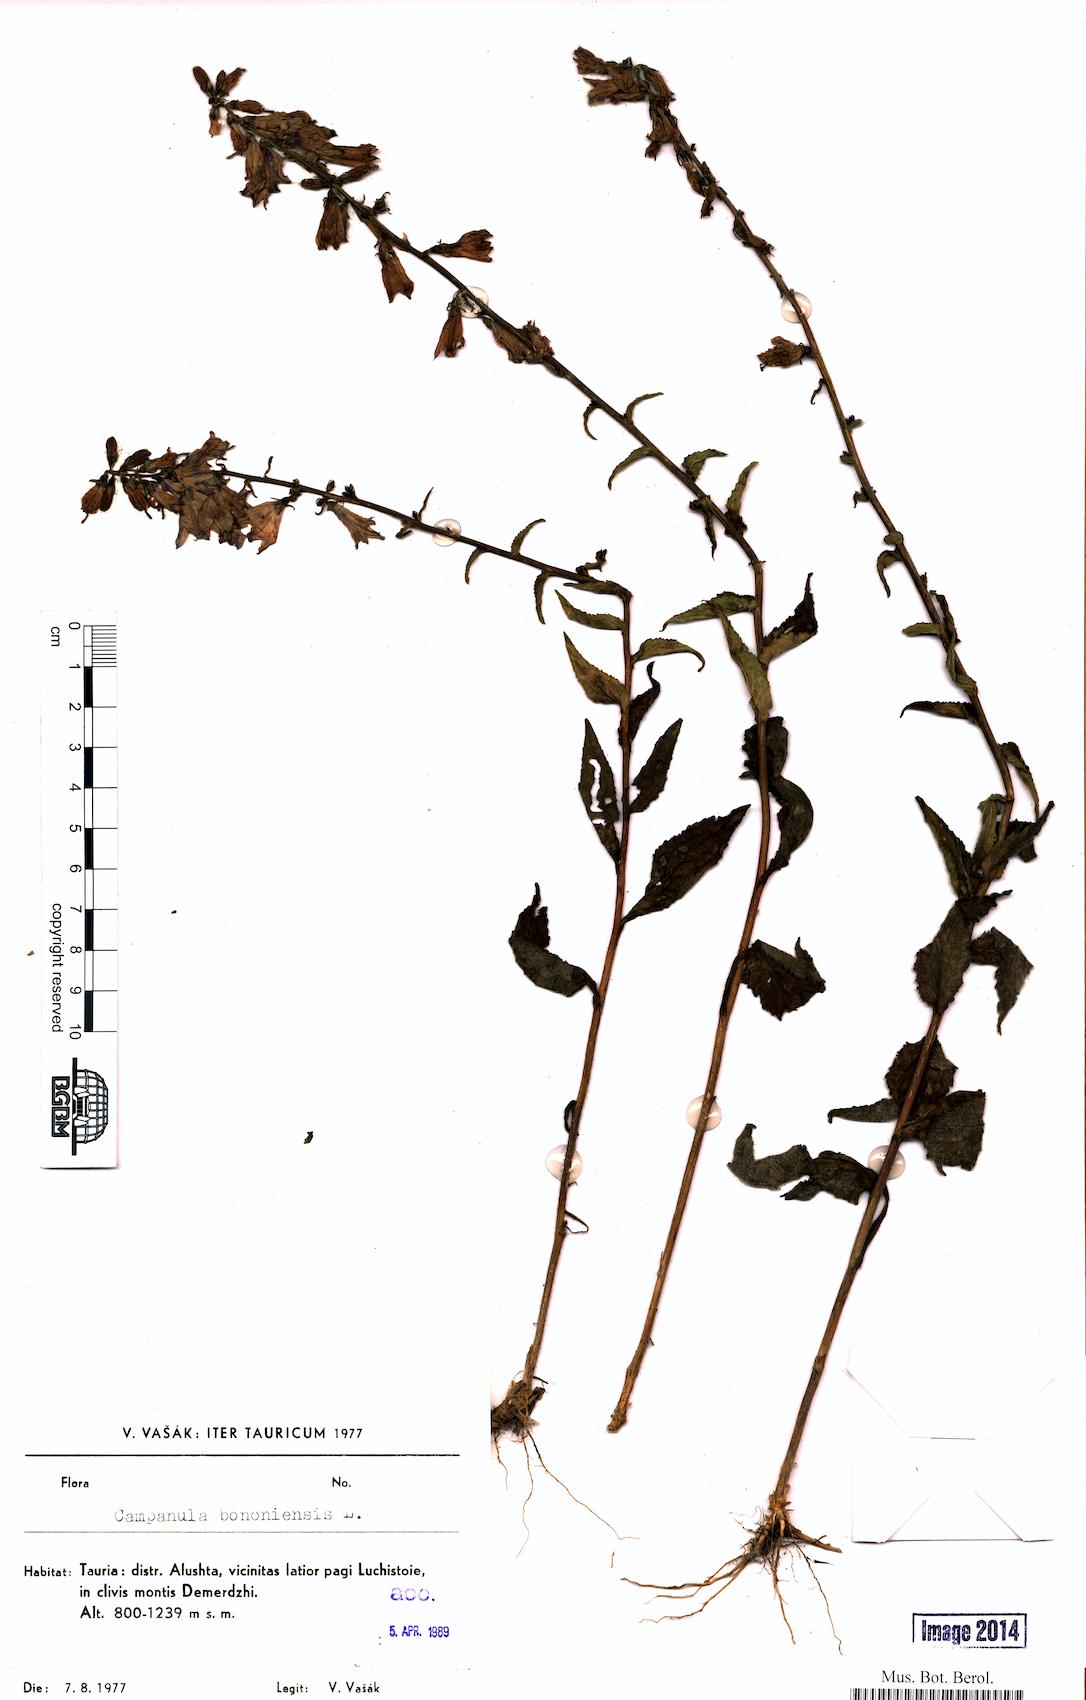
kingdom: Plantae
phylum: Tracheophyta
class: Magnoliopsida
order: Asterales
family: Campanulaceae
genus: Campanula
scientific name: Campanula bononiensis
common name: Pale bellflower
